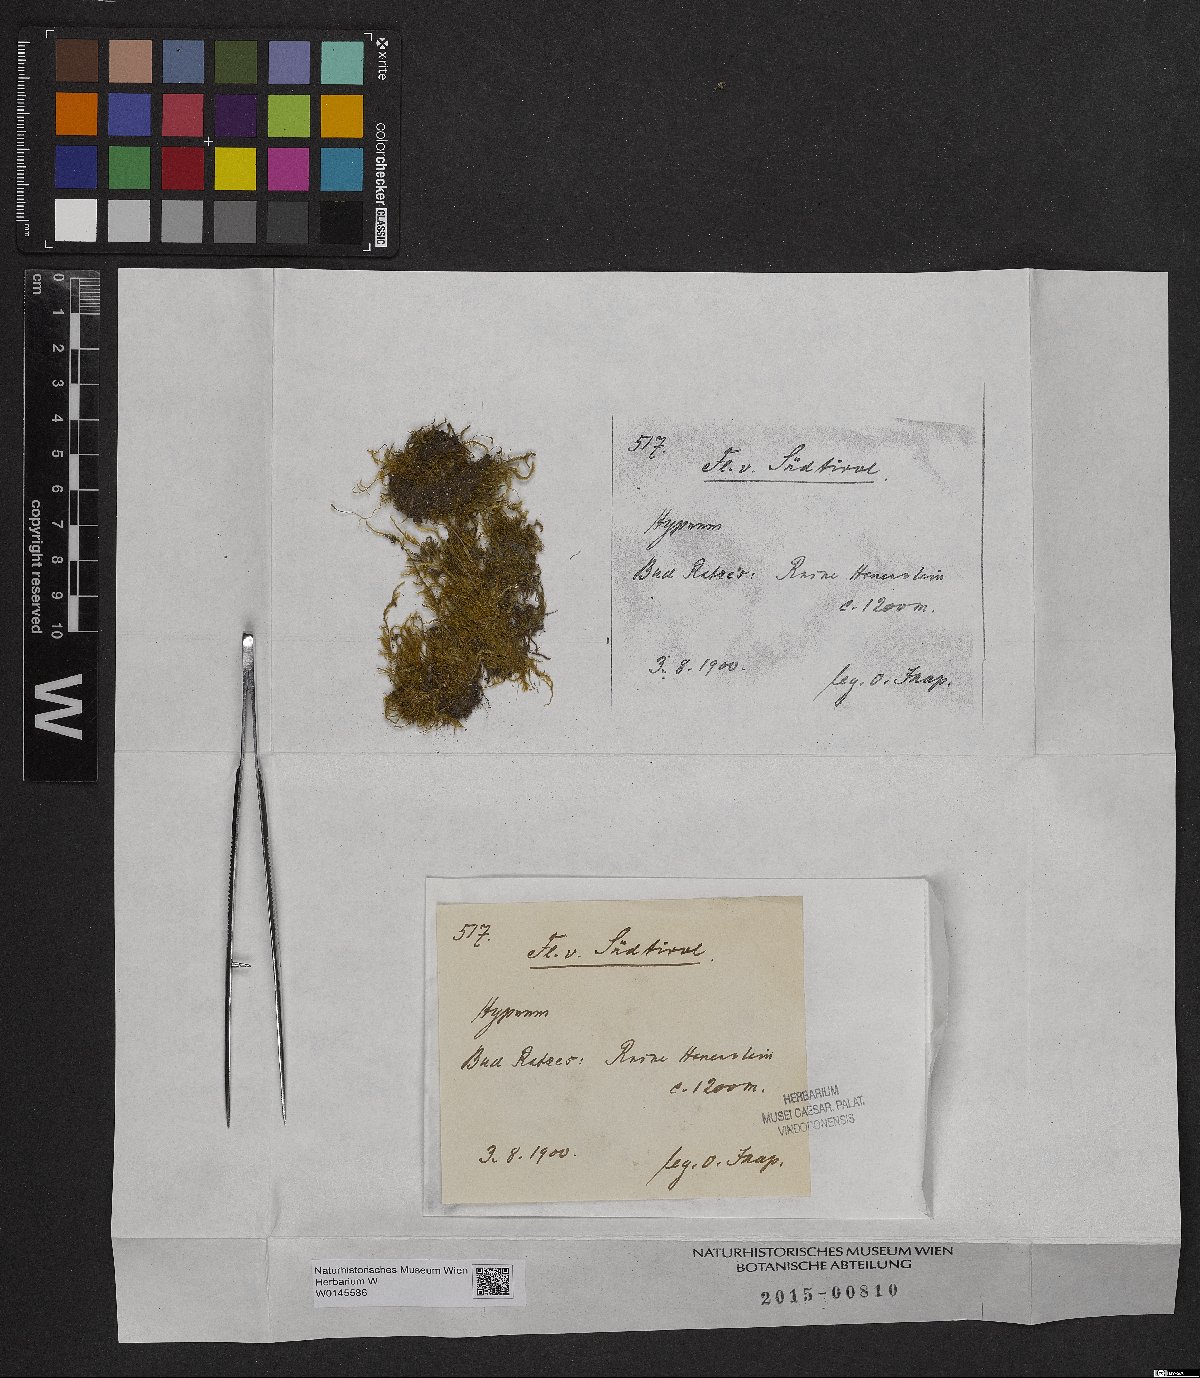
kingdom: Plantae
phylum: Bryophyta
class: Bryopsida
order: Hypnales
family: Hypnaceae
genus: Hypnum
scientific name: Hypnum
